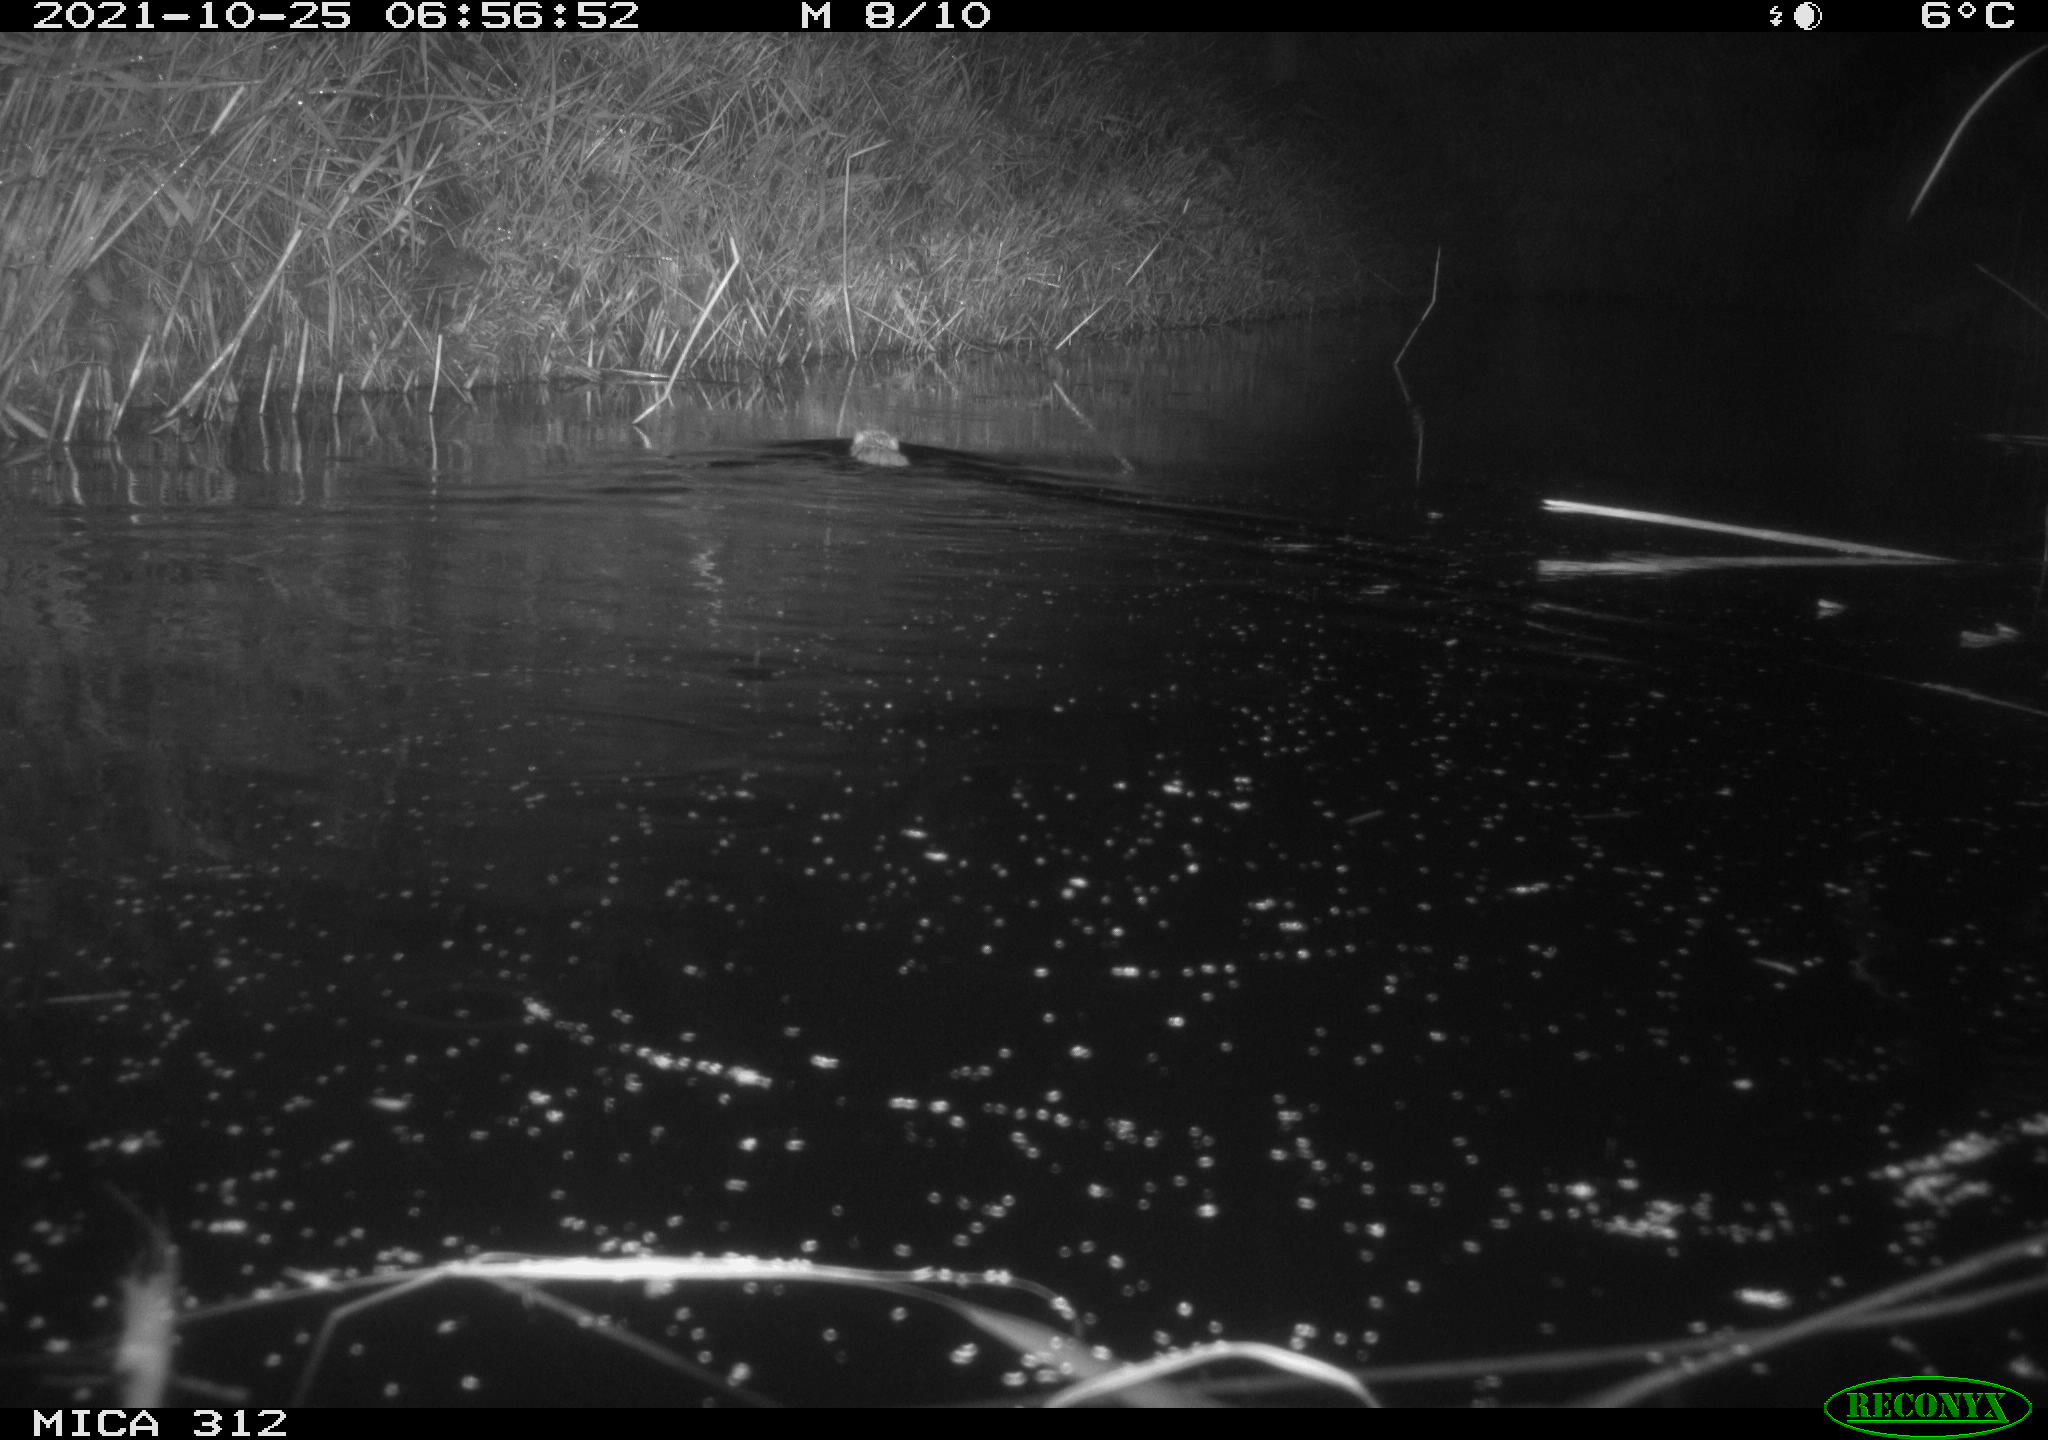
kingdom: Animalia
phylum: Chordata
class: Mammalia
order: Rodentia
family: Cricetidae
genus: Ondatra
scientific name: Ondatra zibethicus
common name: Muskrat
